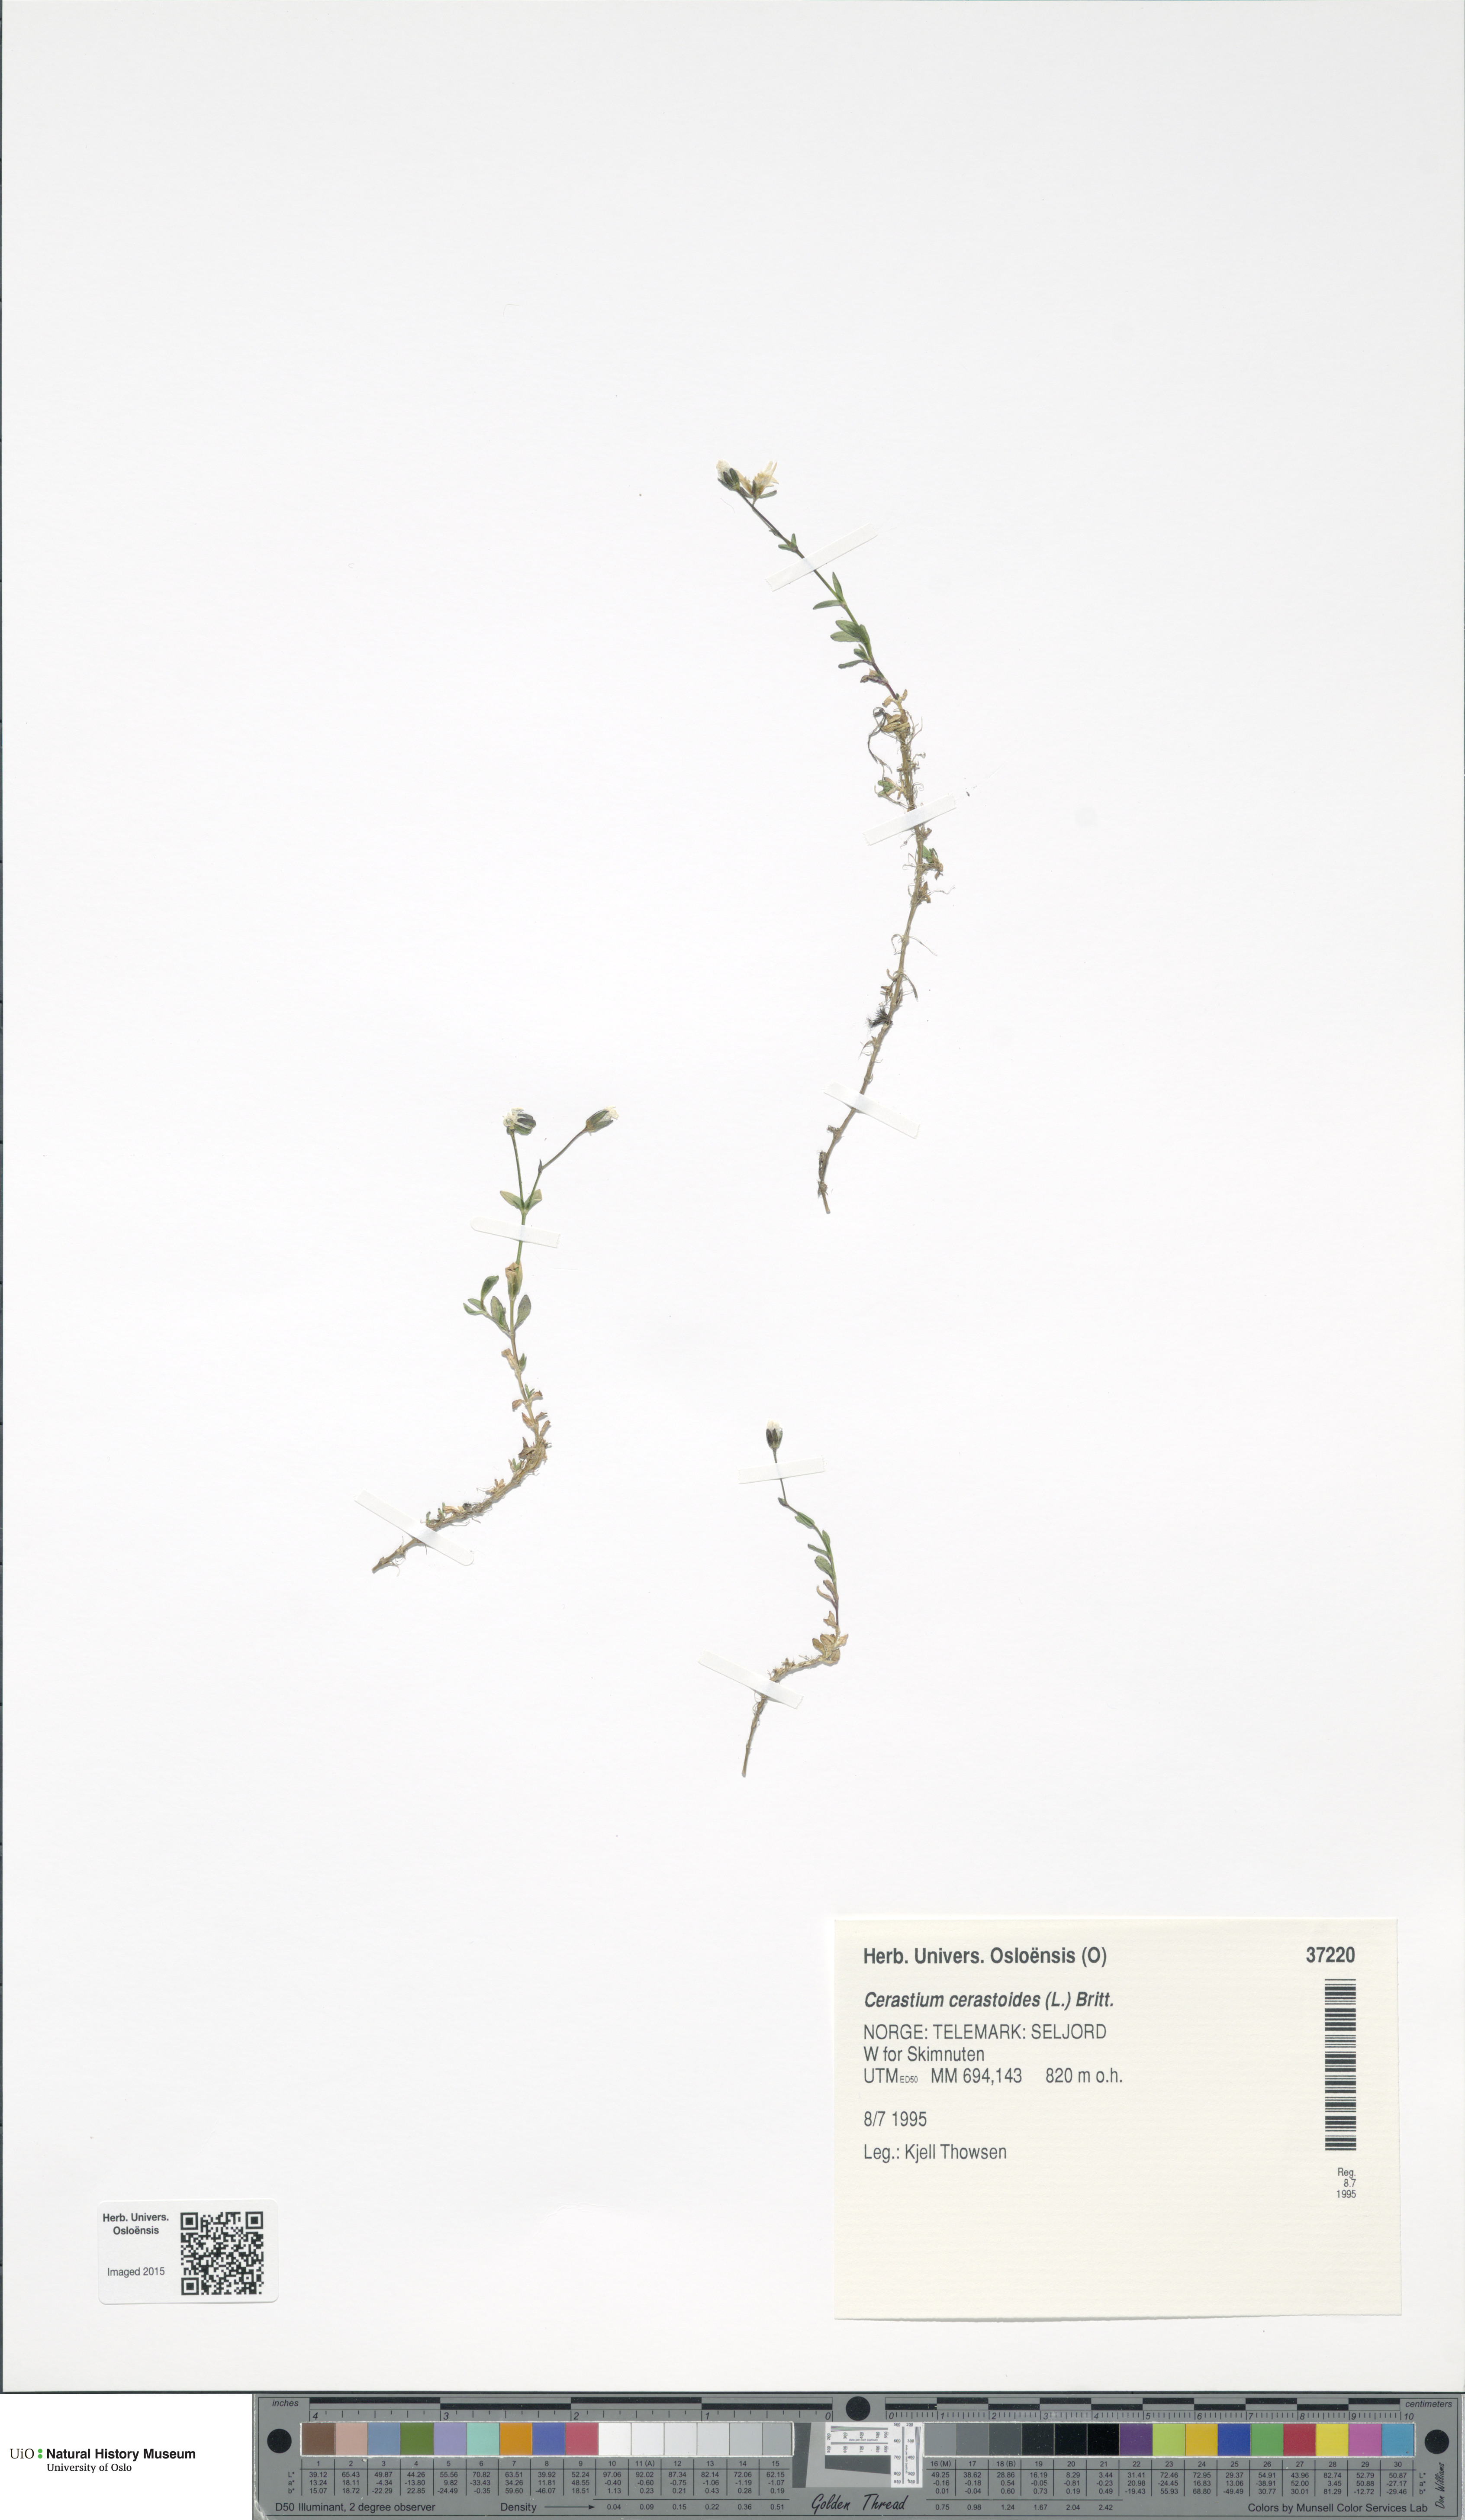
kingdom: Plantae
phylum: Tracheophyta
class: Magnoliopsida
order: Caryophyllales
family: Caryophyllaceae
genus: Dichodon
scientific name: Dichodon cerastoides
